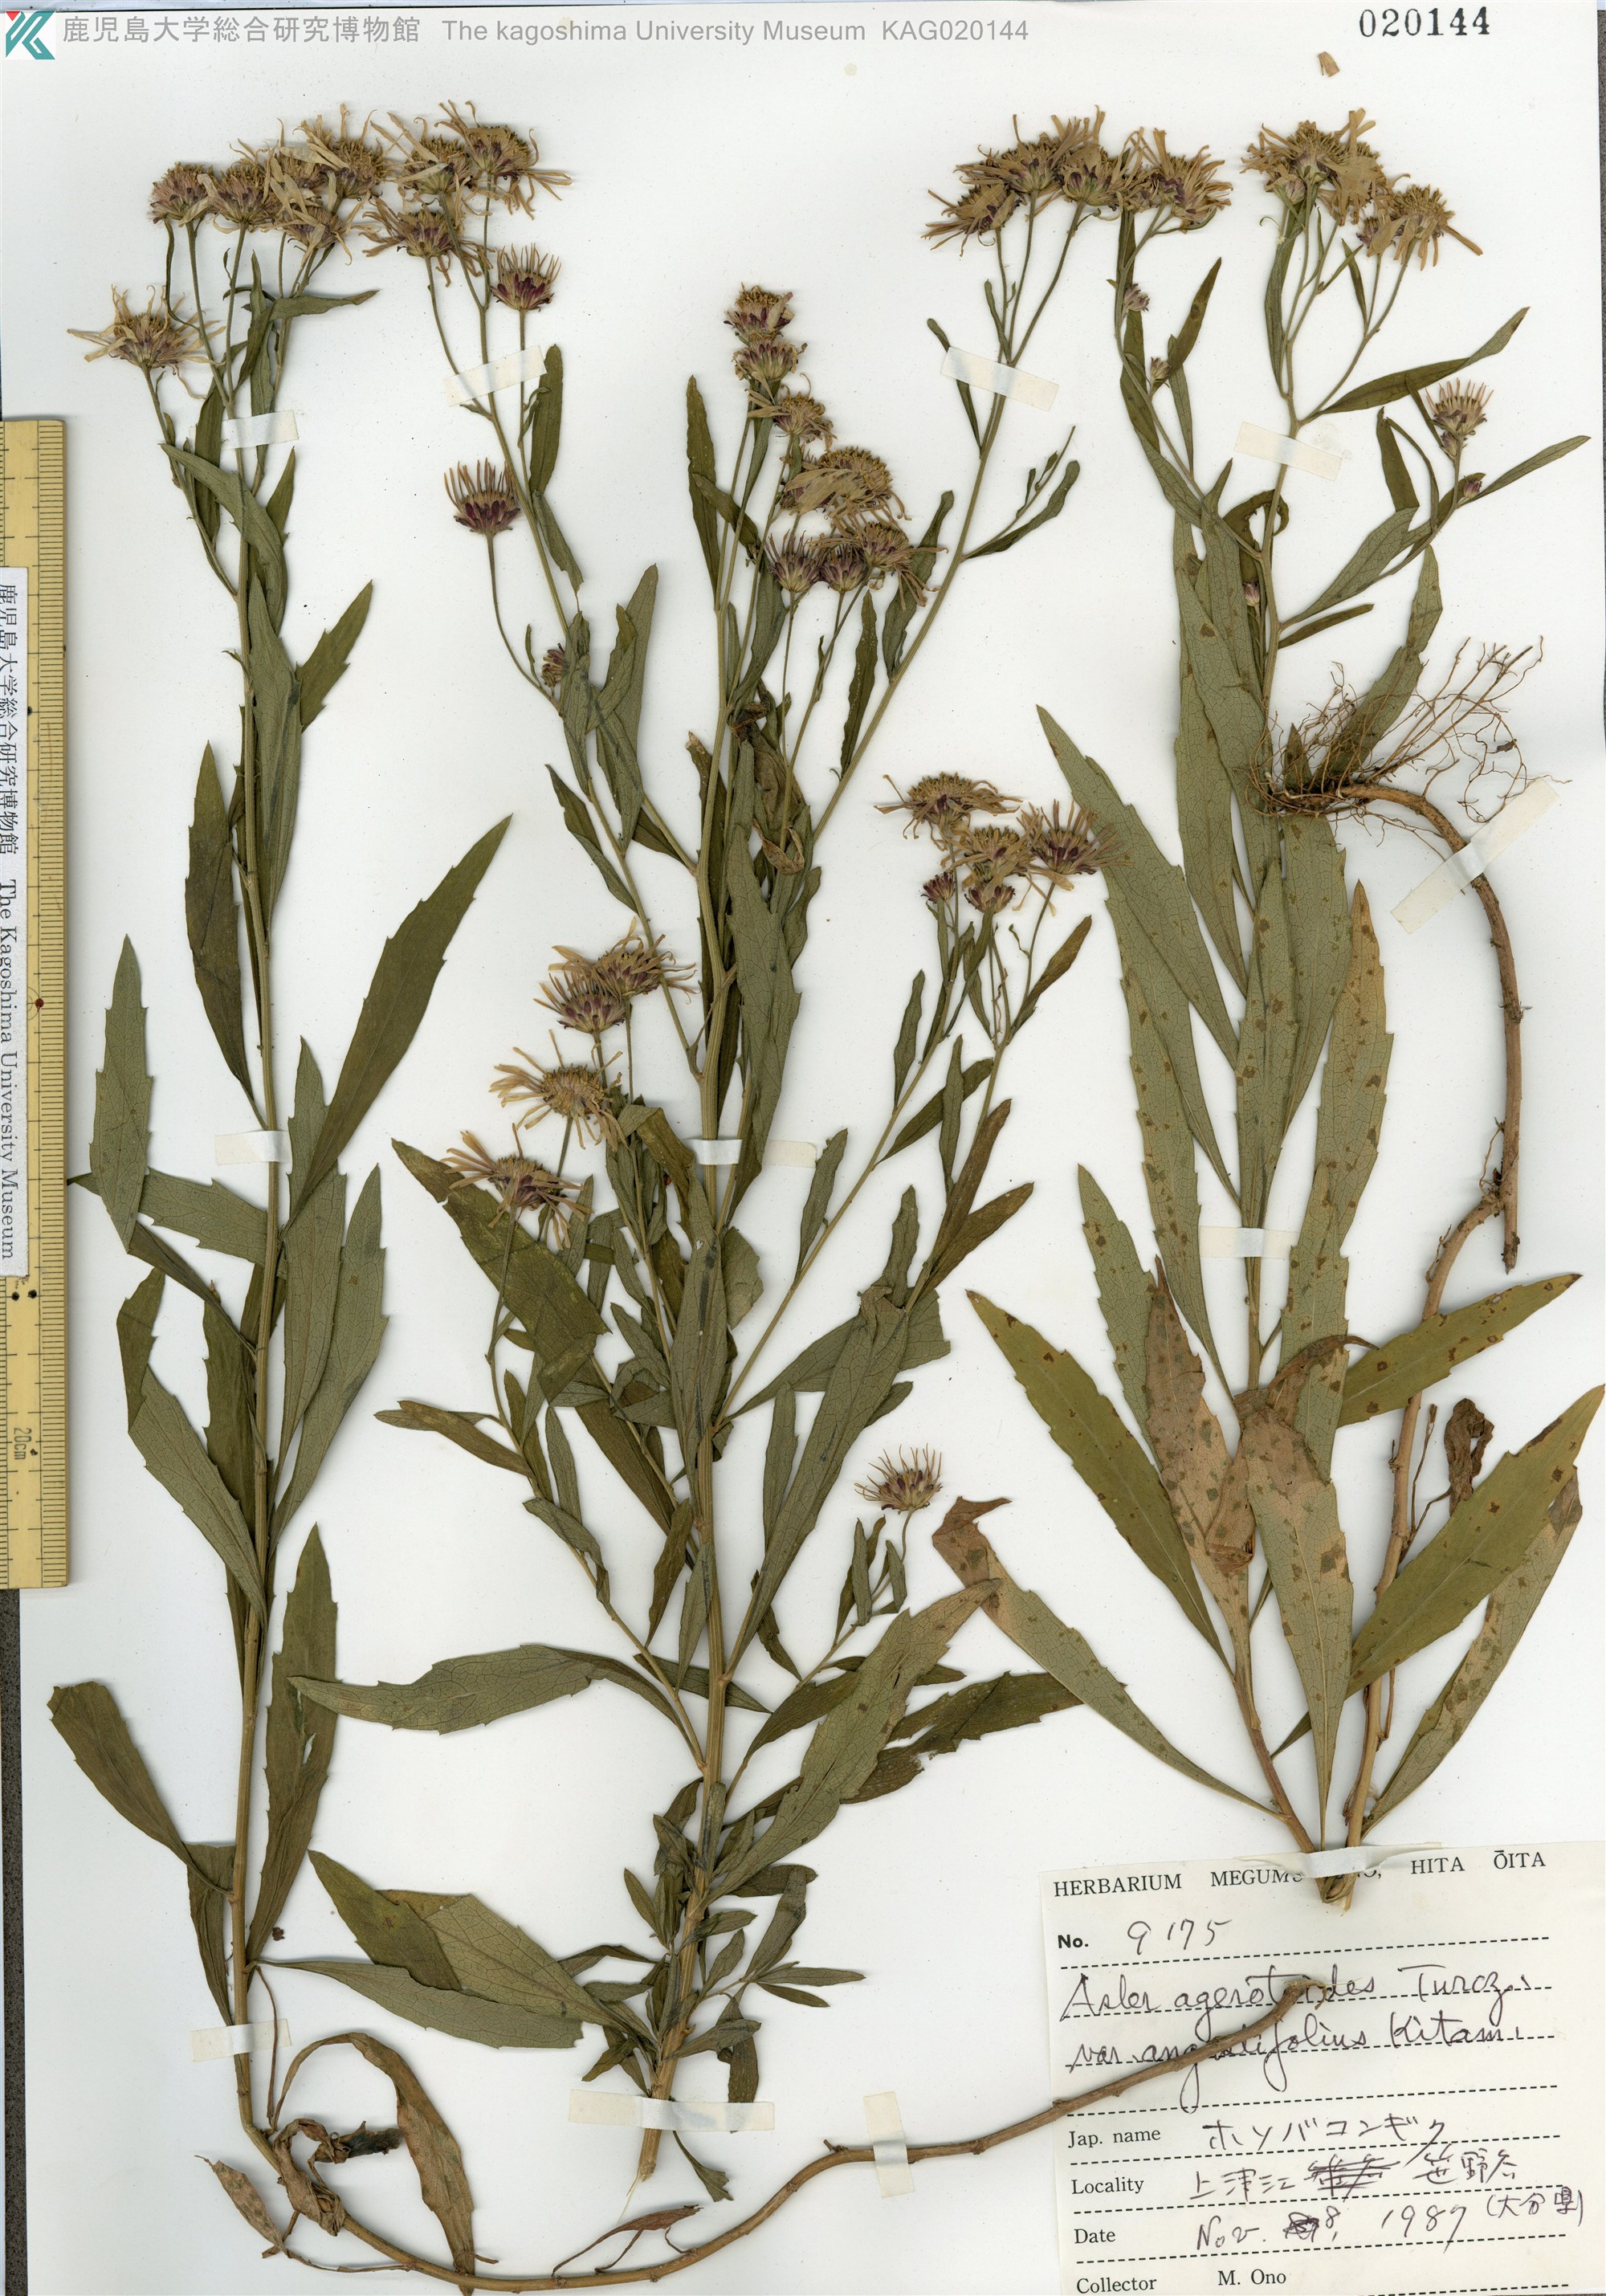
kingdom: Plantae
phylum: Tracheophyta
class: Magnoliopsida
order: Asterales
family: Asteraceae
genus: Aster
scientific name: Aster microcephalus
